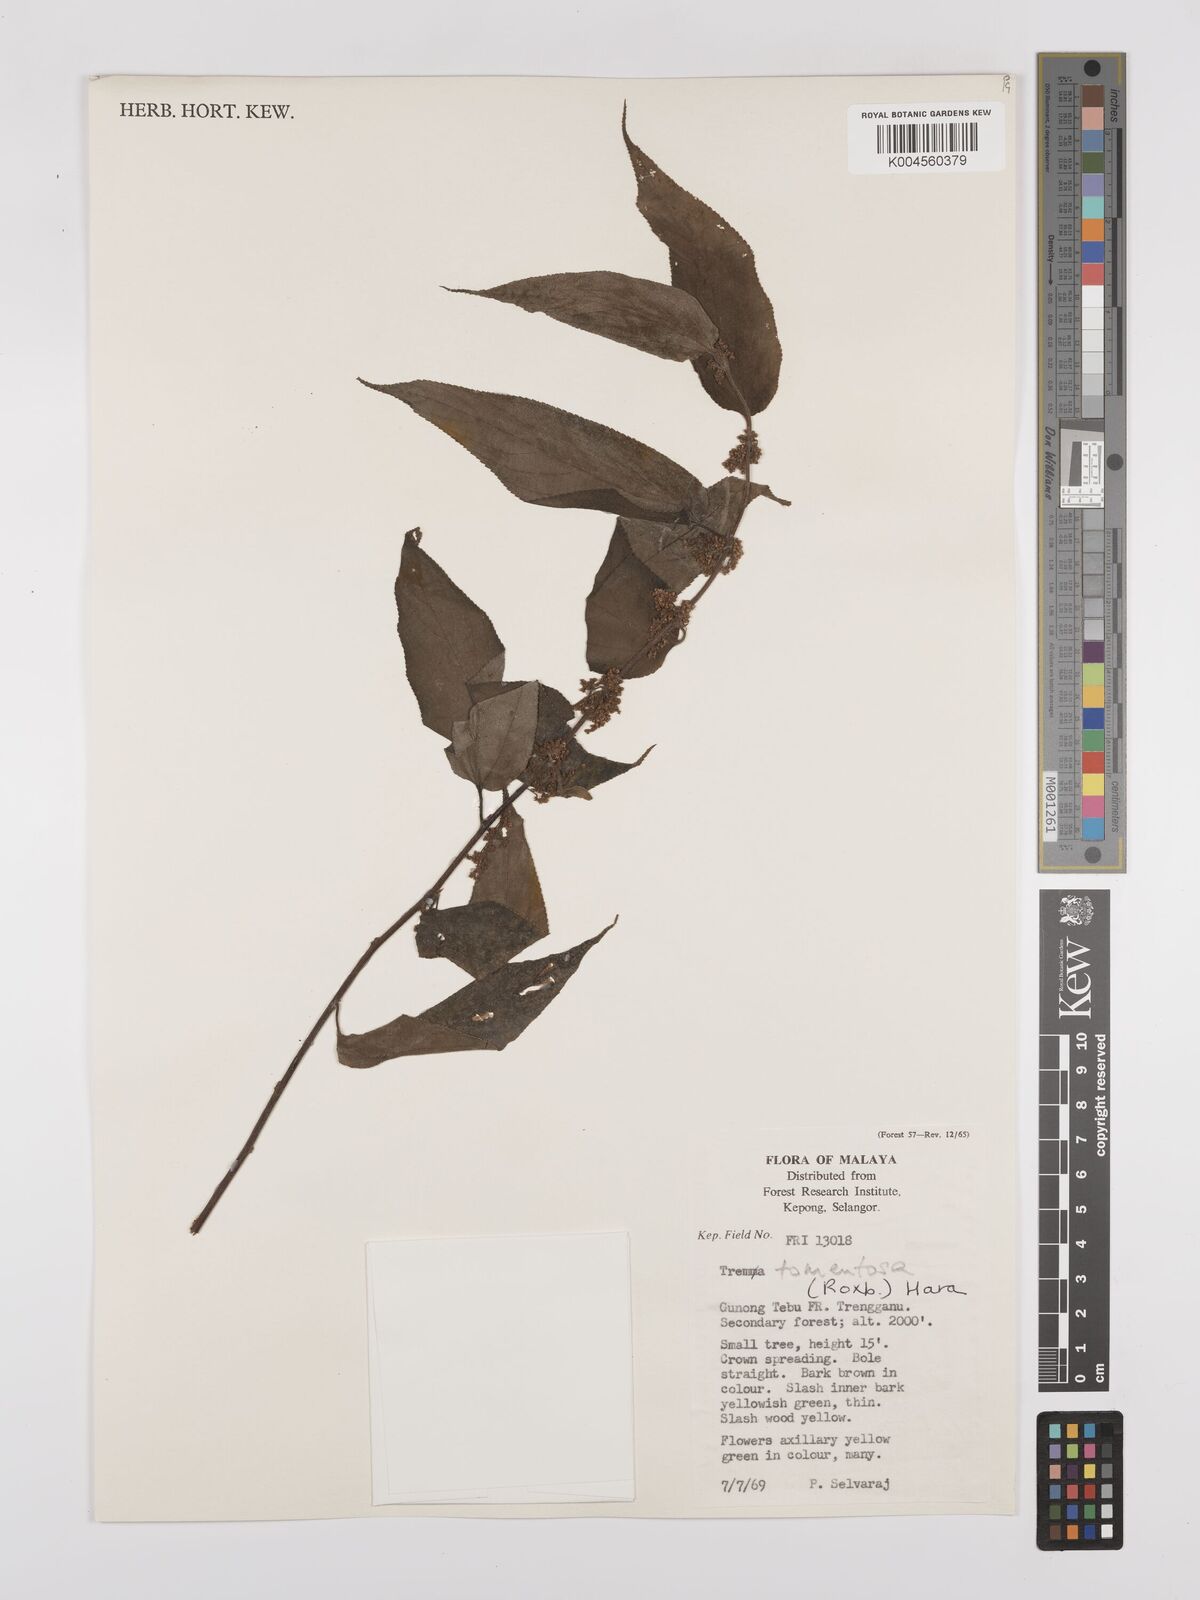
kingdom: Plantae
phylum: Tracheophyta
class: Magnoliopsida
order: Rosales
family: Cannabaceae
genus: Trema
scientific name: Trema tomentosum
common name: Peach-leaf-poisonbush
